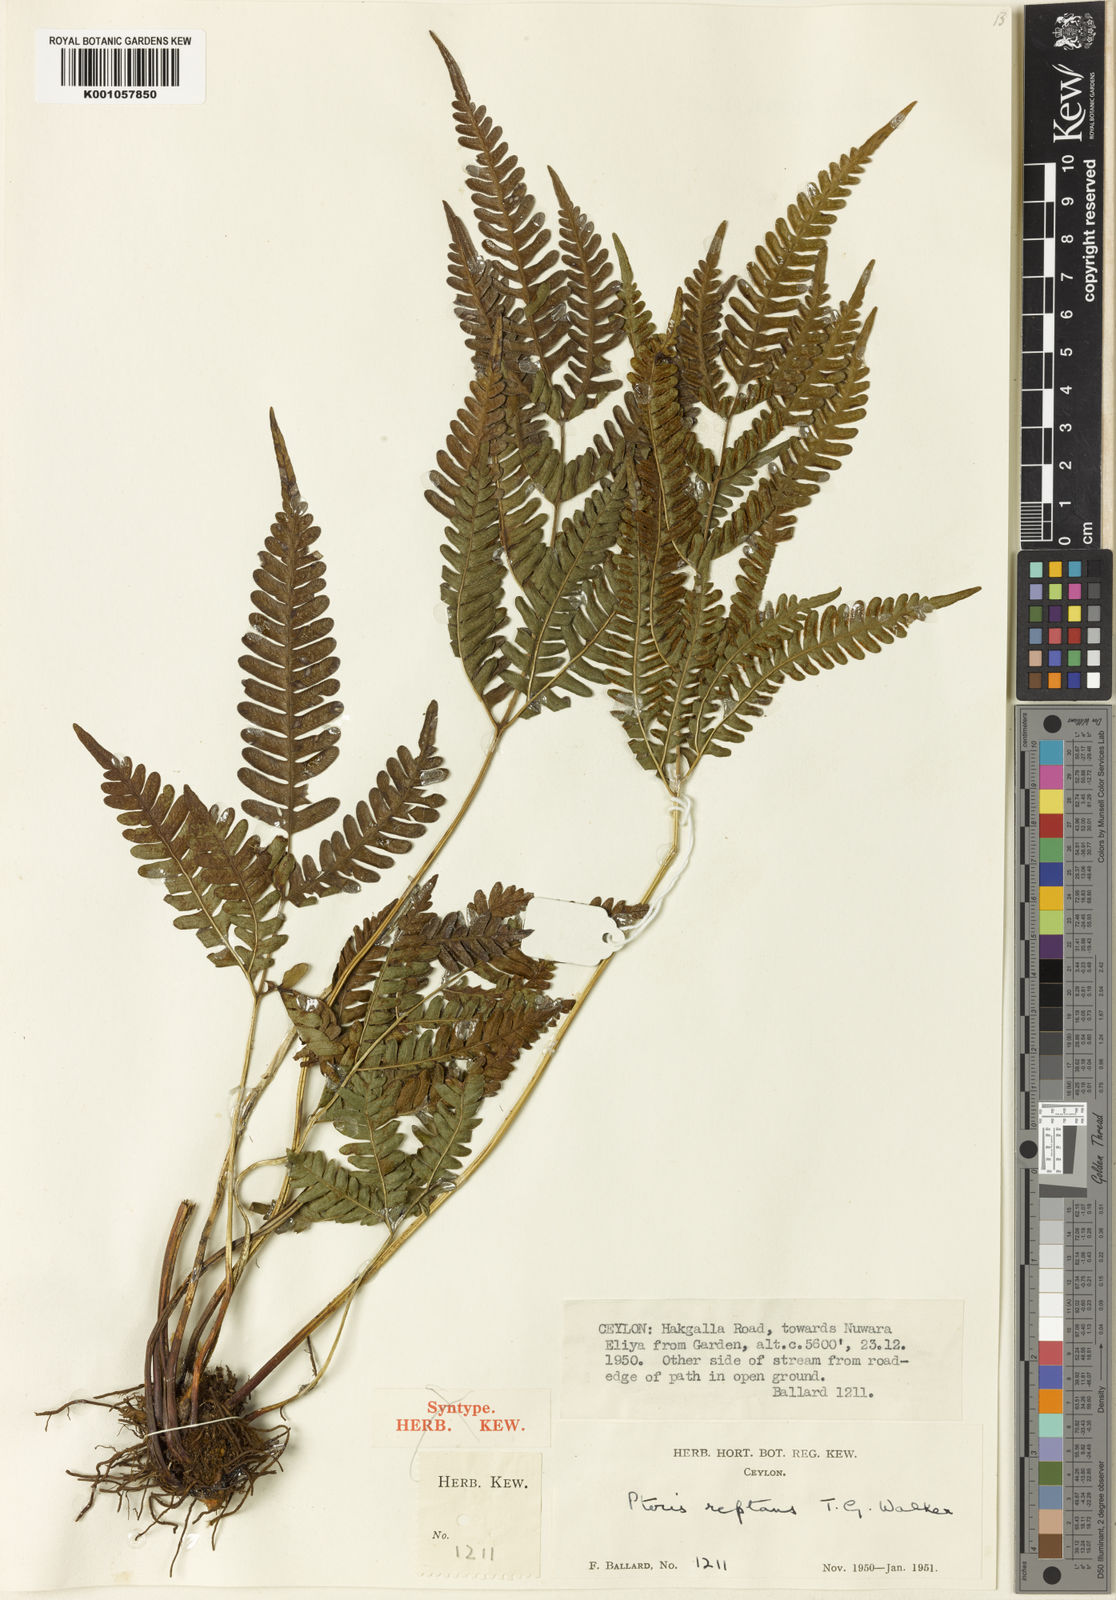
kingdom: Plantae
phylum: Tracheophyta
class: Polypodiopsida
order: Polypodiales
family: Pteridaceae
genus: Pteris
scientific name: Pteris reptans
